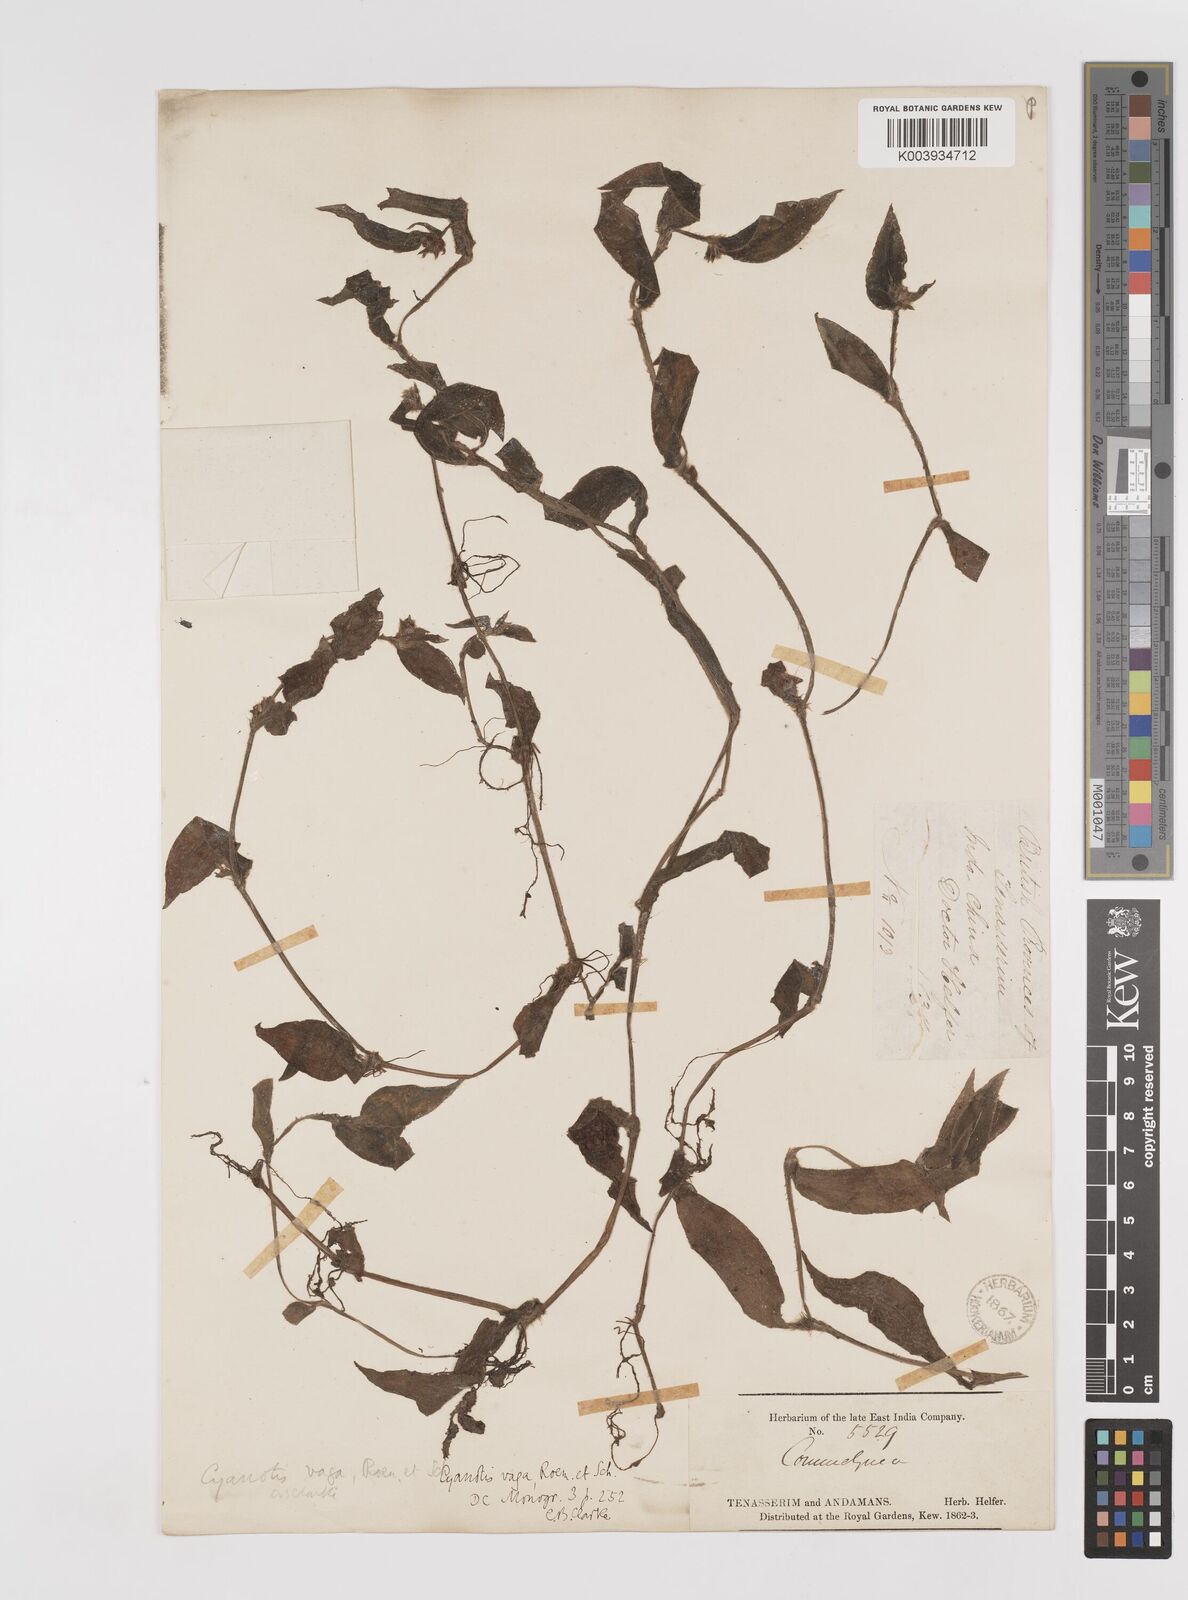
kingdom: Plantae
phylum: Tracheophyta
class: Liliopsida
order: Commelinales
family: Commelinaceae
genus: Cyanotis
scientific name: Cyanotis vaga
